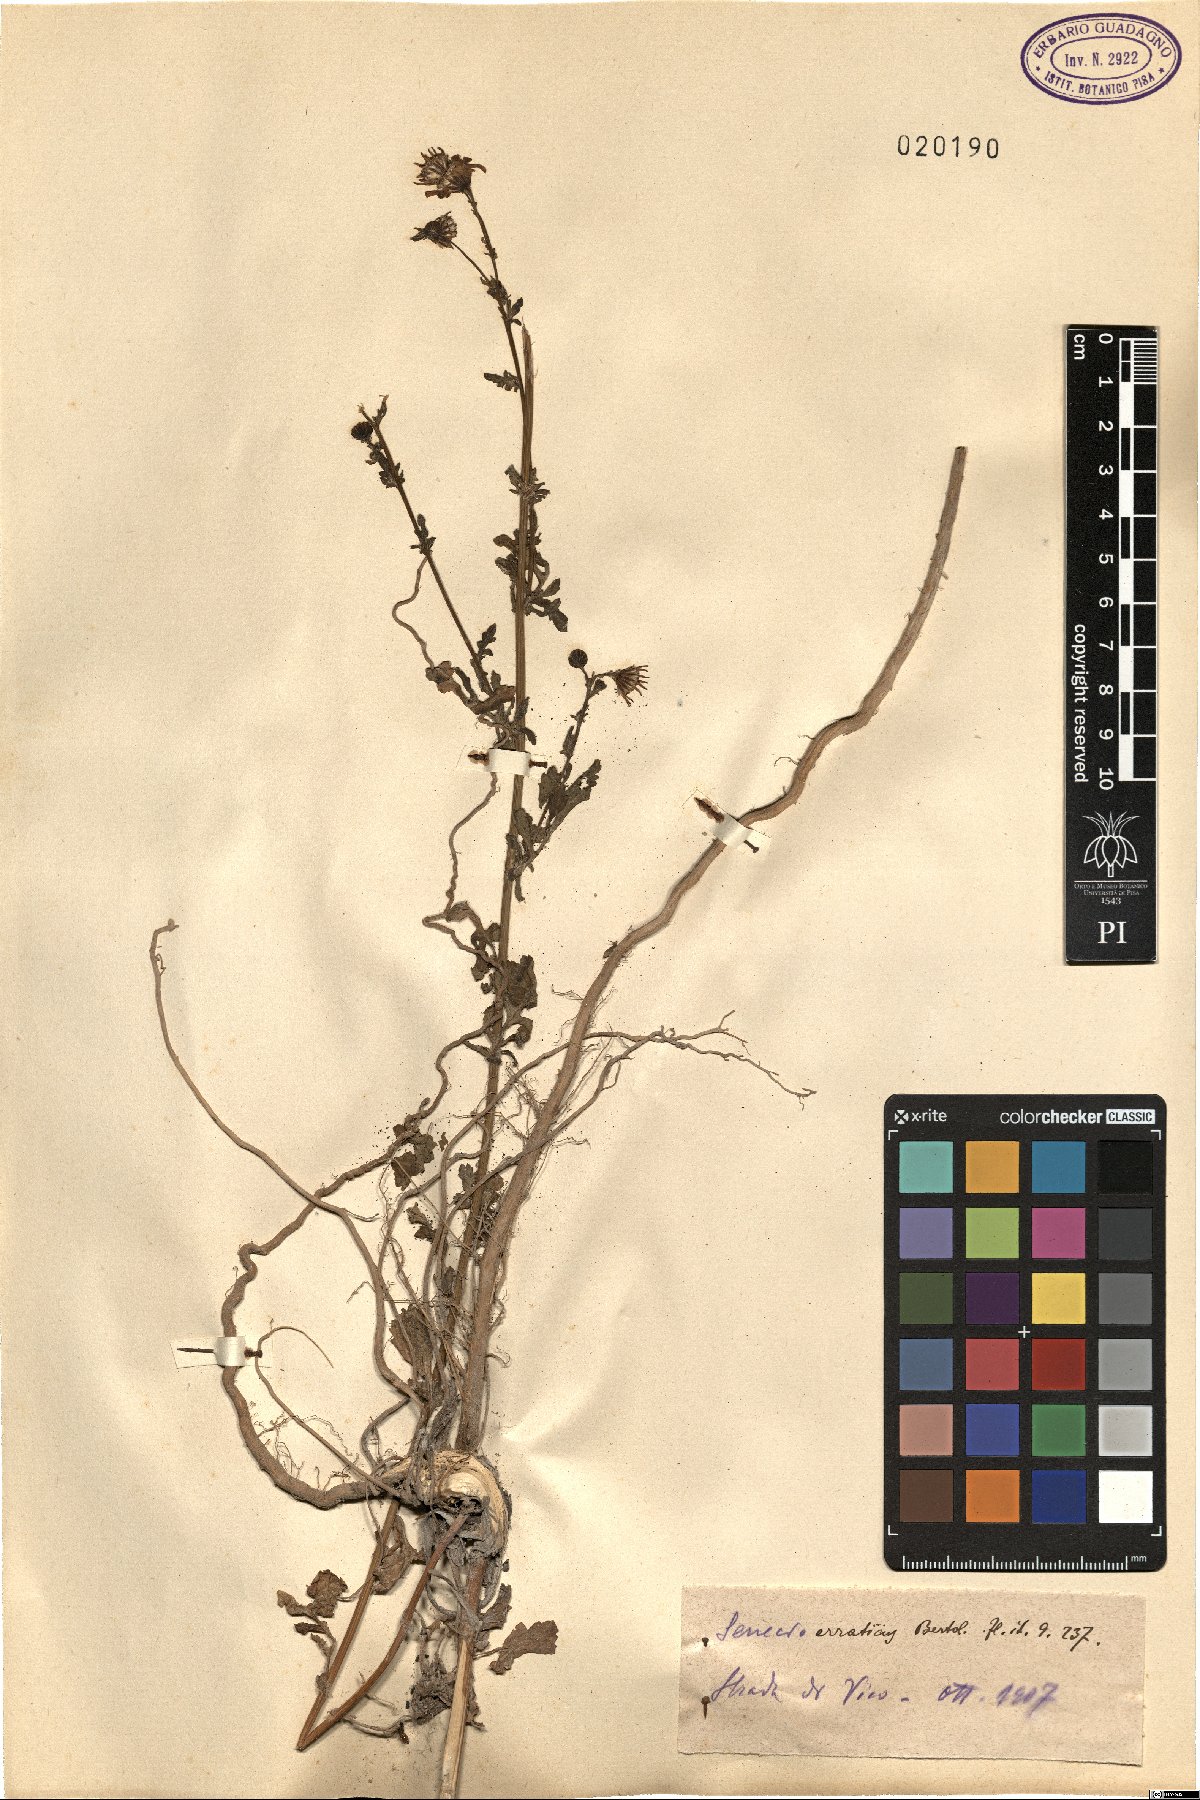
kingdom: Plantae
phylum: Tracheophyta
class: Magnoliopsida
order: Asterales
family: Asteraceae
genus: Jacobaea
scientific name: Jacobaea erratica
